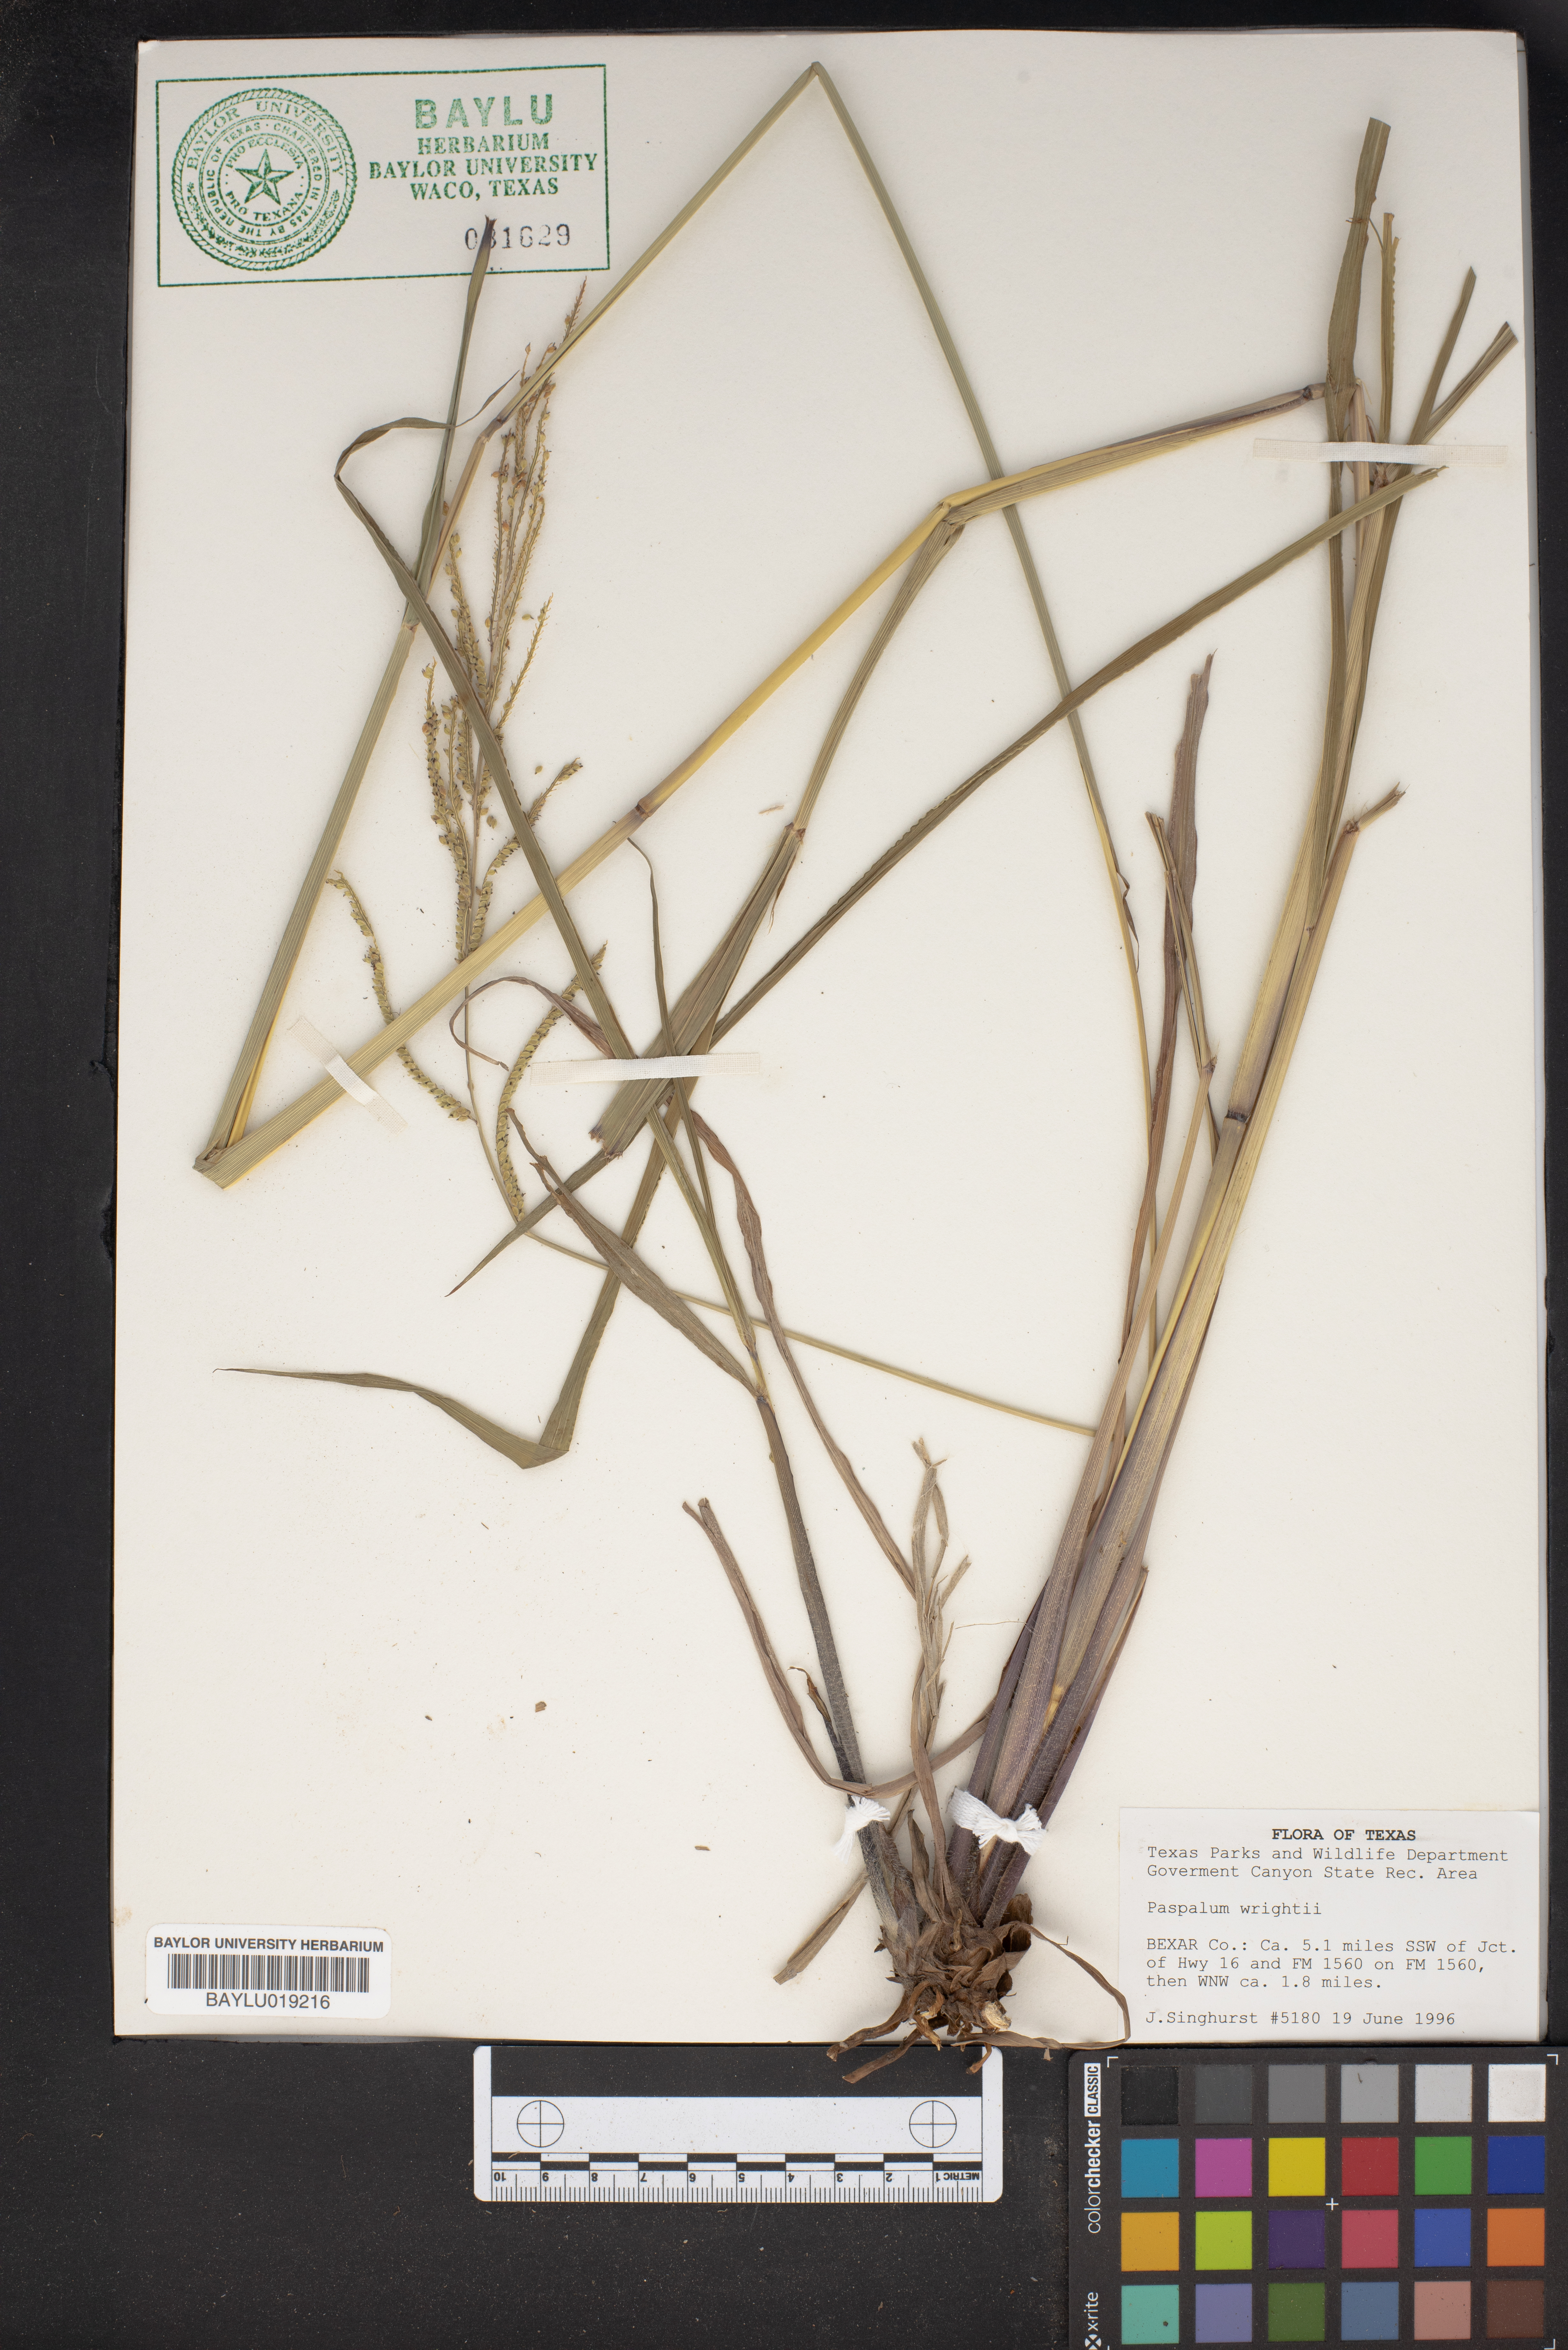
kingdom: Plantae
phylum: Tracheophyta
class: Liliopsida
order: Poales
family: Poaceae
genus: Paspalum
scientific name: Paspalum wrightii
